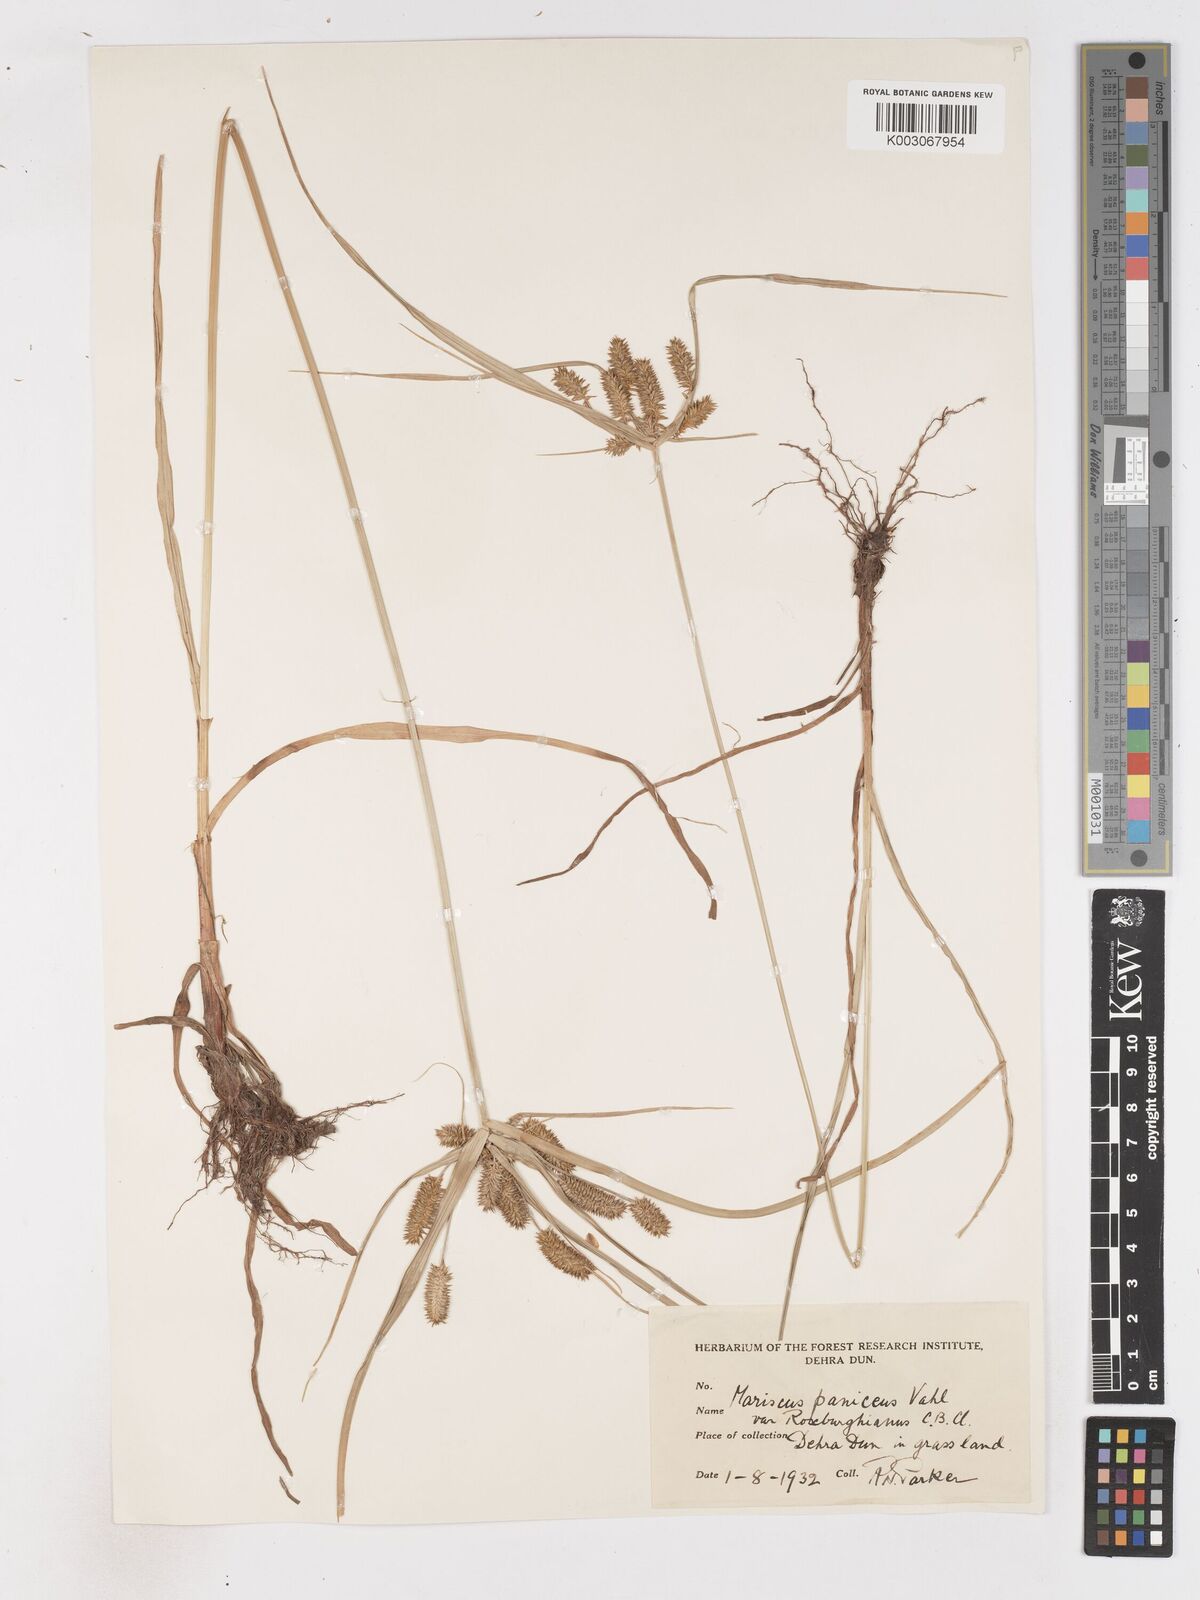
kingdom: Plantae
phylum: Tracheophyta
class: Liliopsida
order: Poales
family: Cyperaceae
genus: Cyperus
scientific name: Cyperus paniceus
